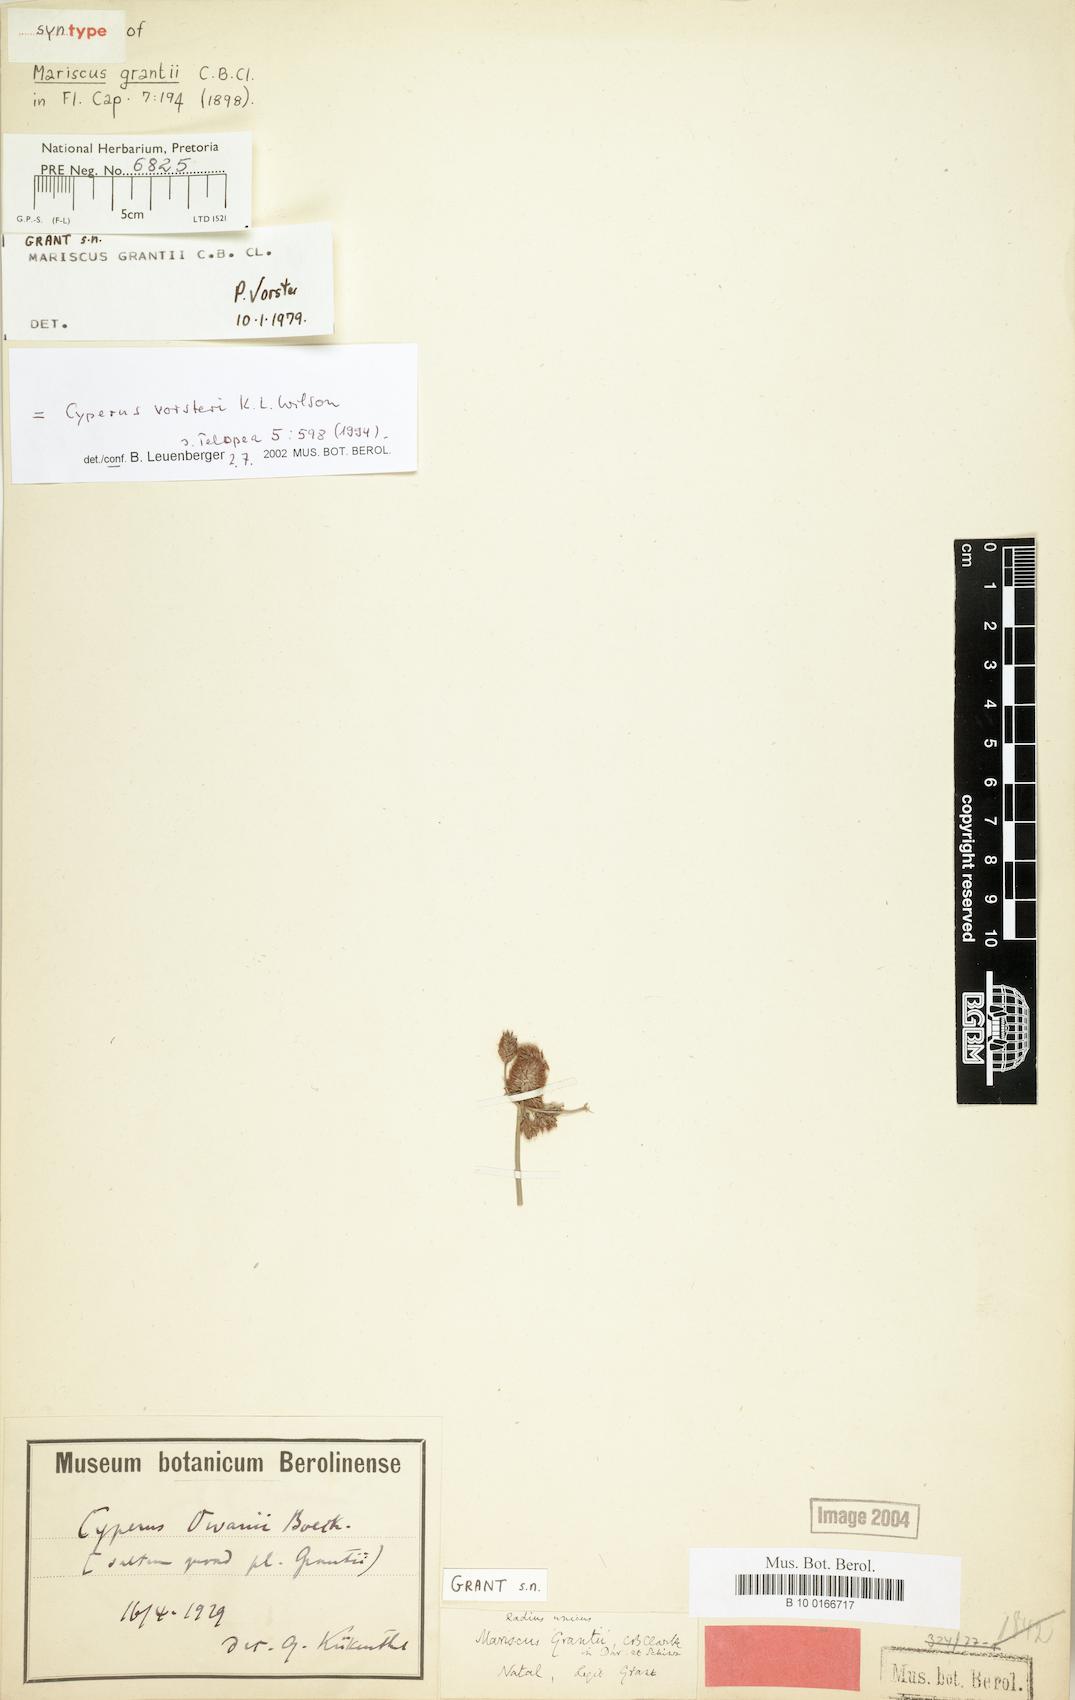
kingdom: Plantae
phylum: Tracheophyta
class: Liliopsida
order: Poales
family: Cyperaceae
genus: Cyperus
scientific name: Cyperus vorsteri
